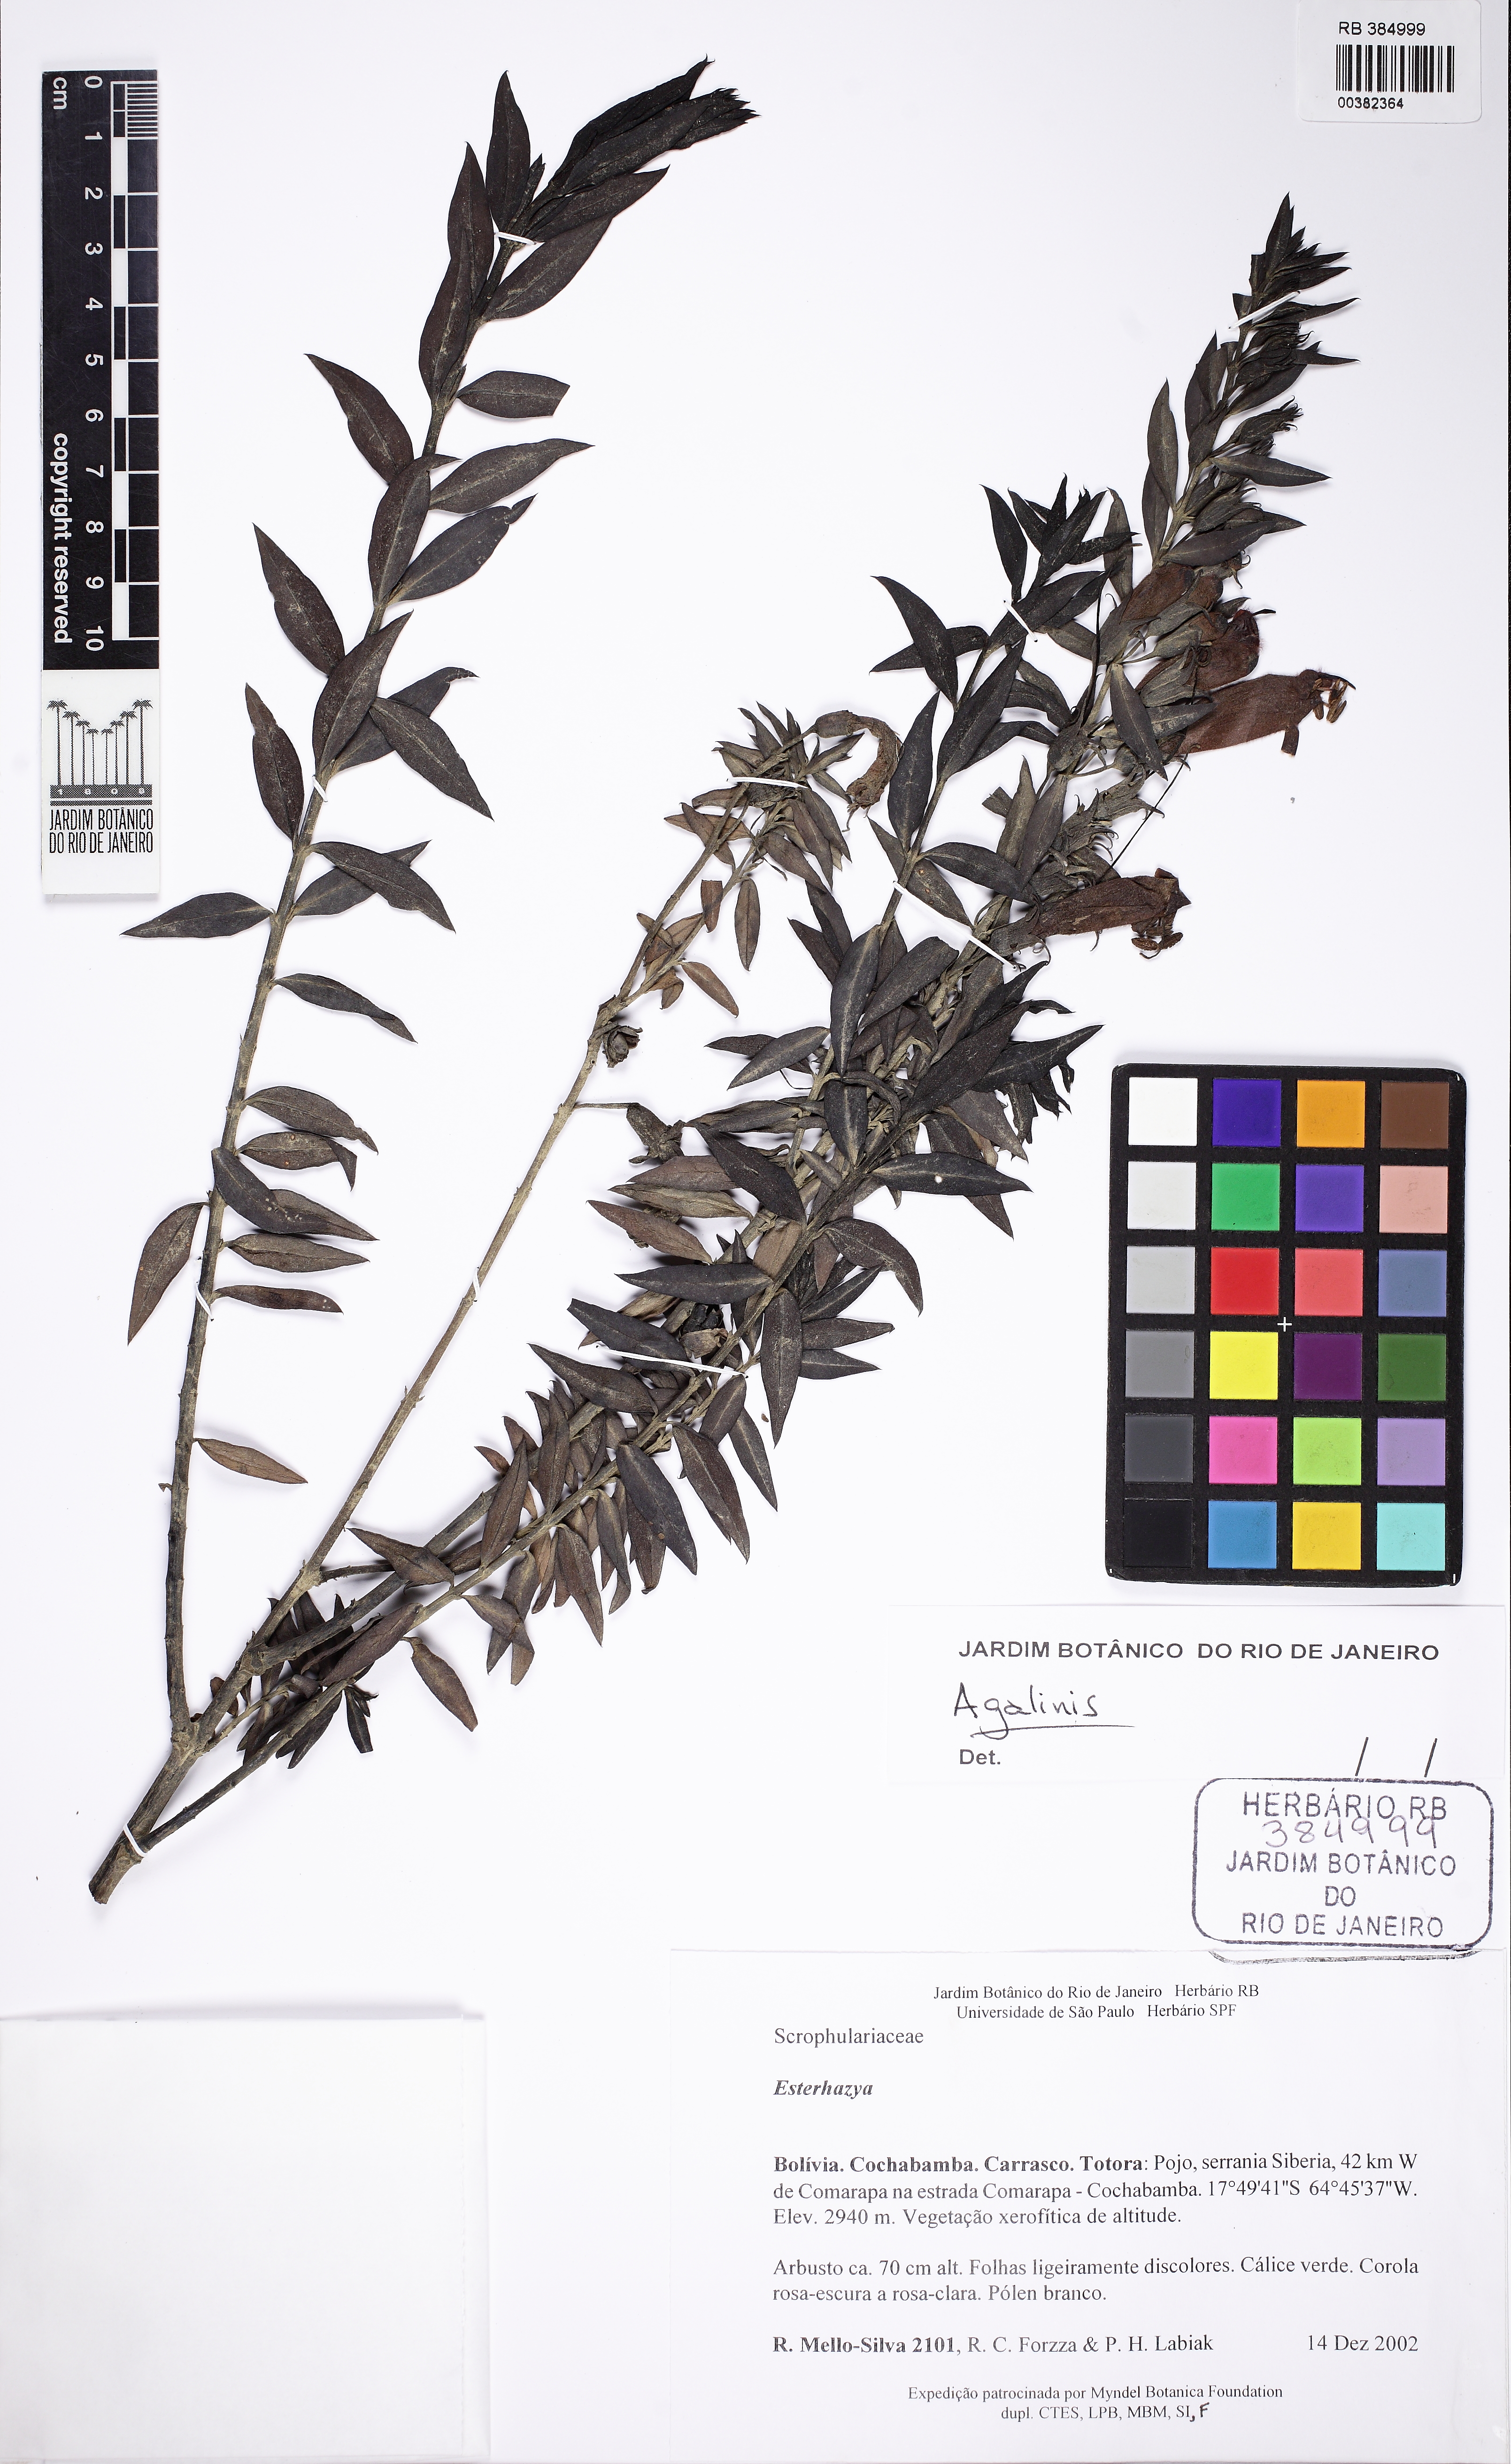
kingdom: Plantae
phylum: Tracheophyta
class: Magnoliopsida
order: Lamiales
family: Orobanchaceae
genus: Agalinis
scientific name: Agalinis
